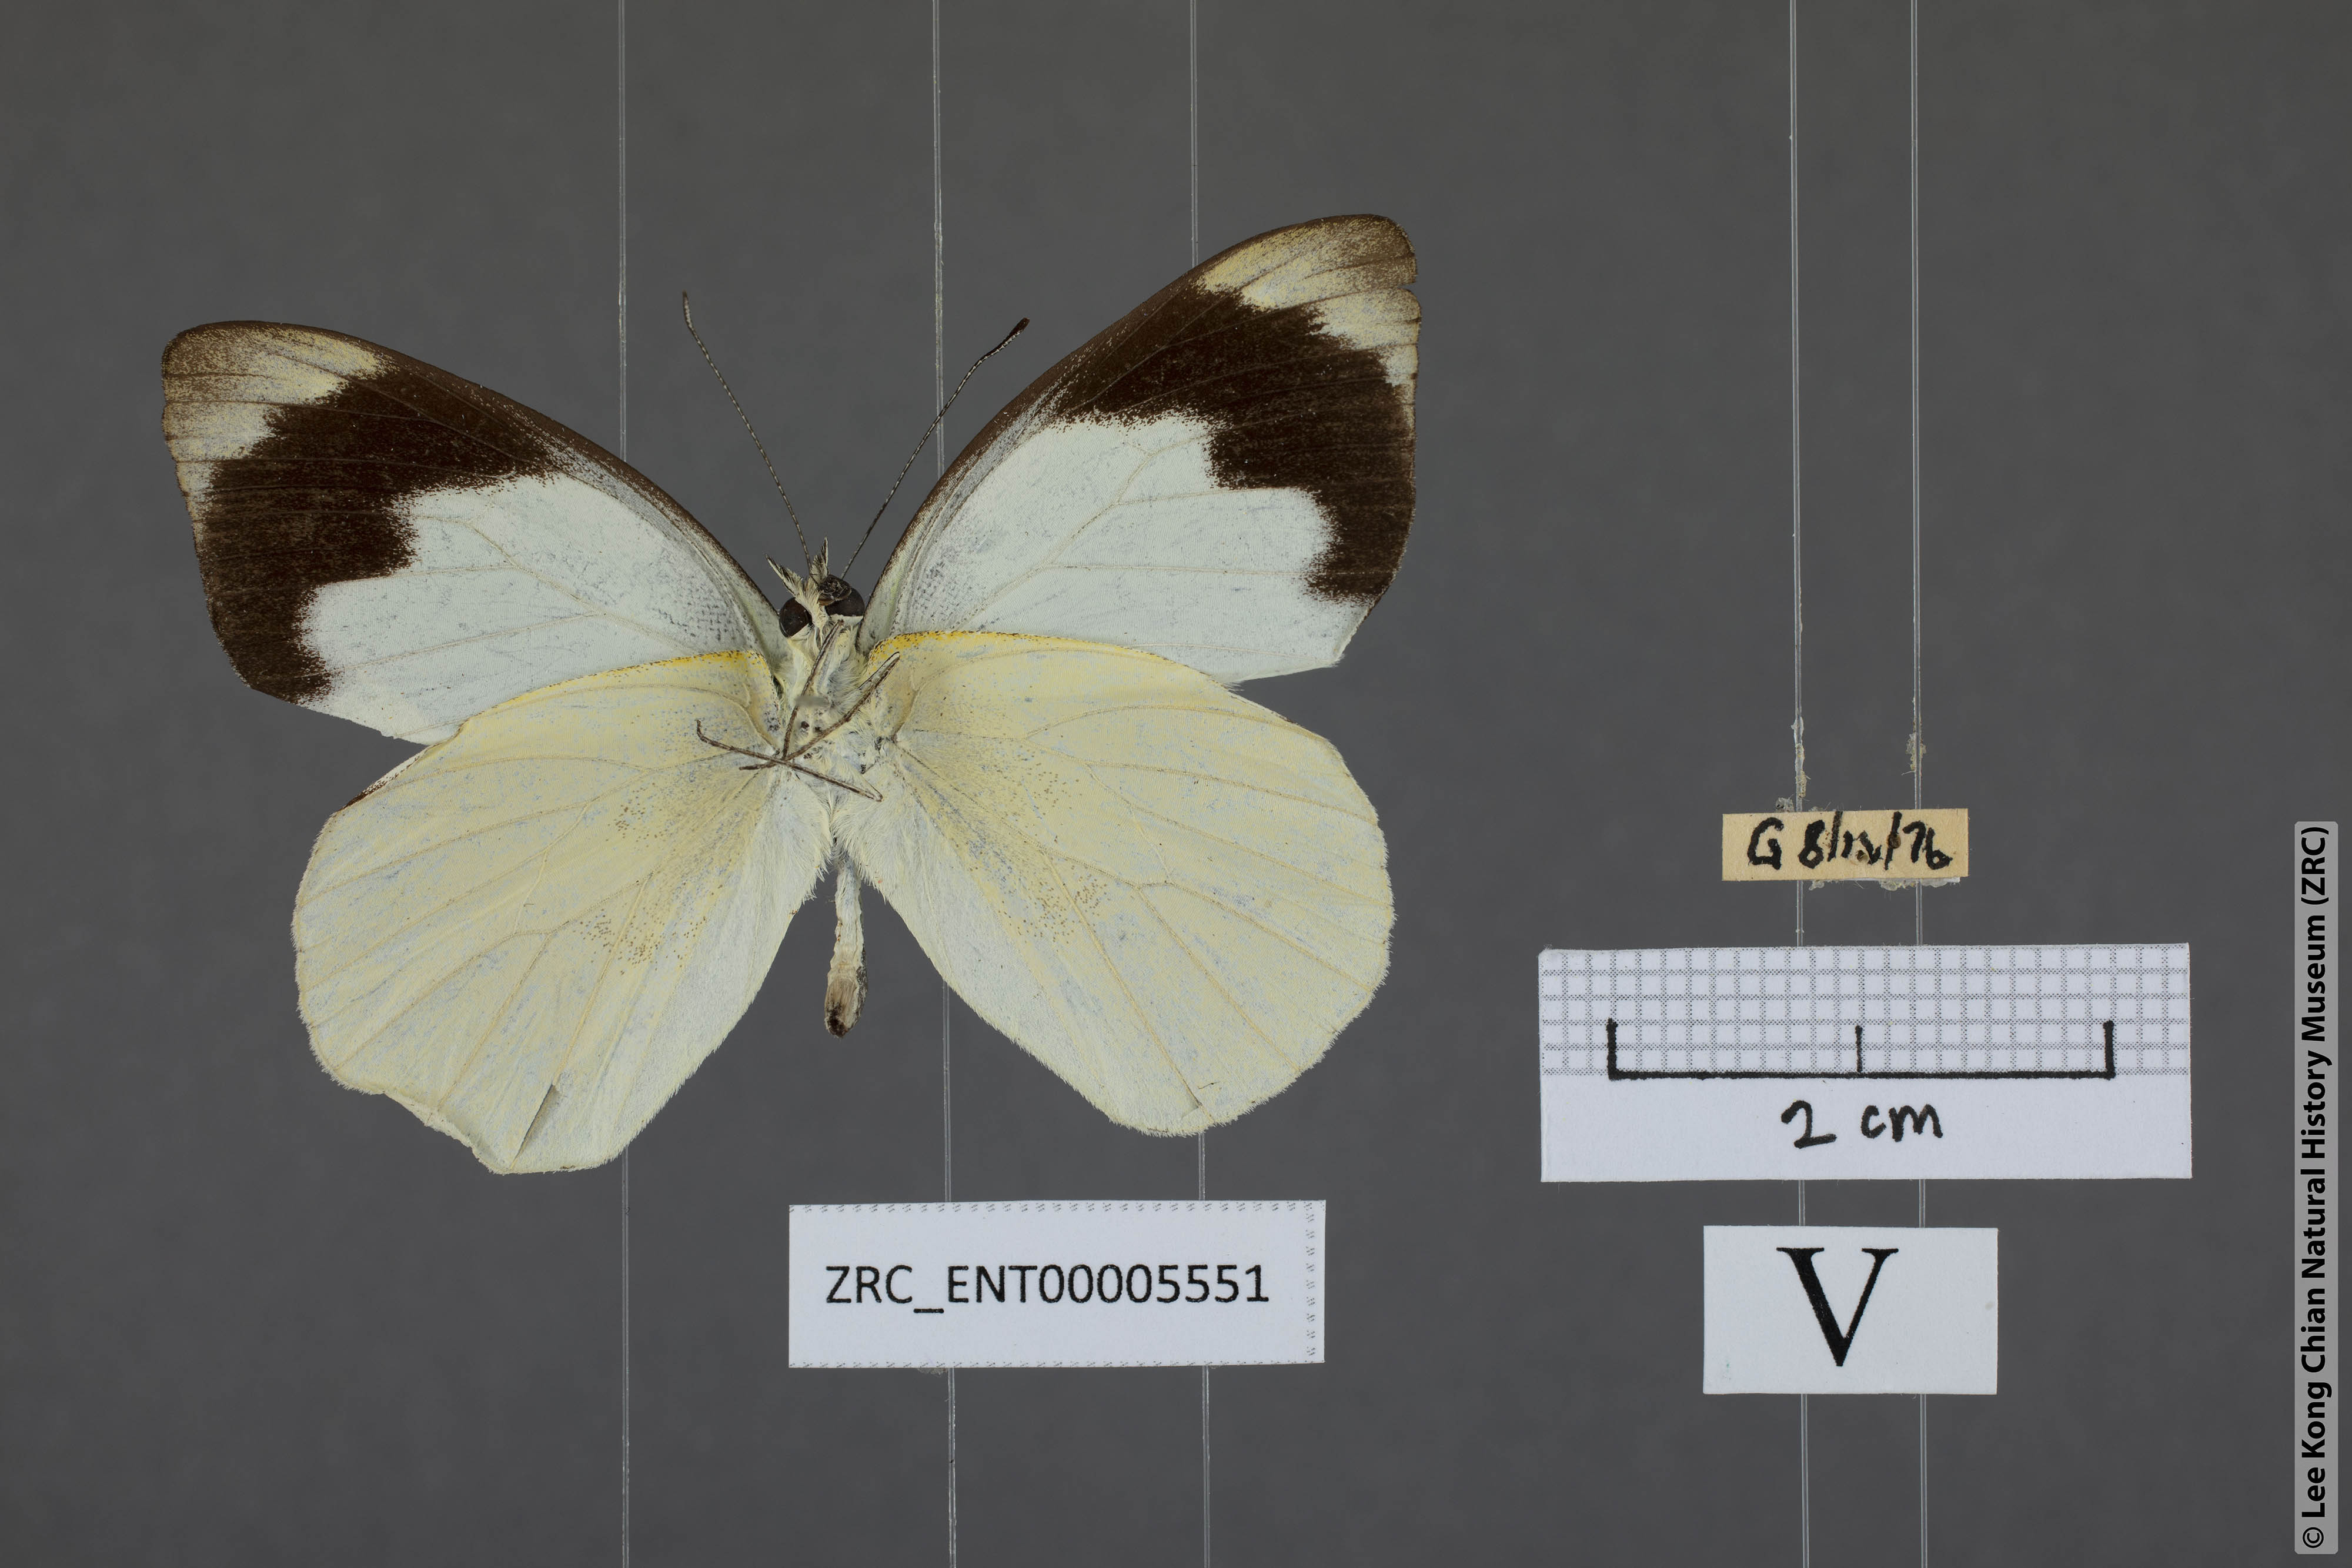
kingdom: Animalia
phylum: Arthropoda
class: Insecta
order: Lepidoptera
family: Pieridae
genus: Appias
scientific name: Appias indra
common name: Plain puffin
